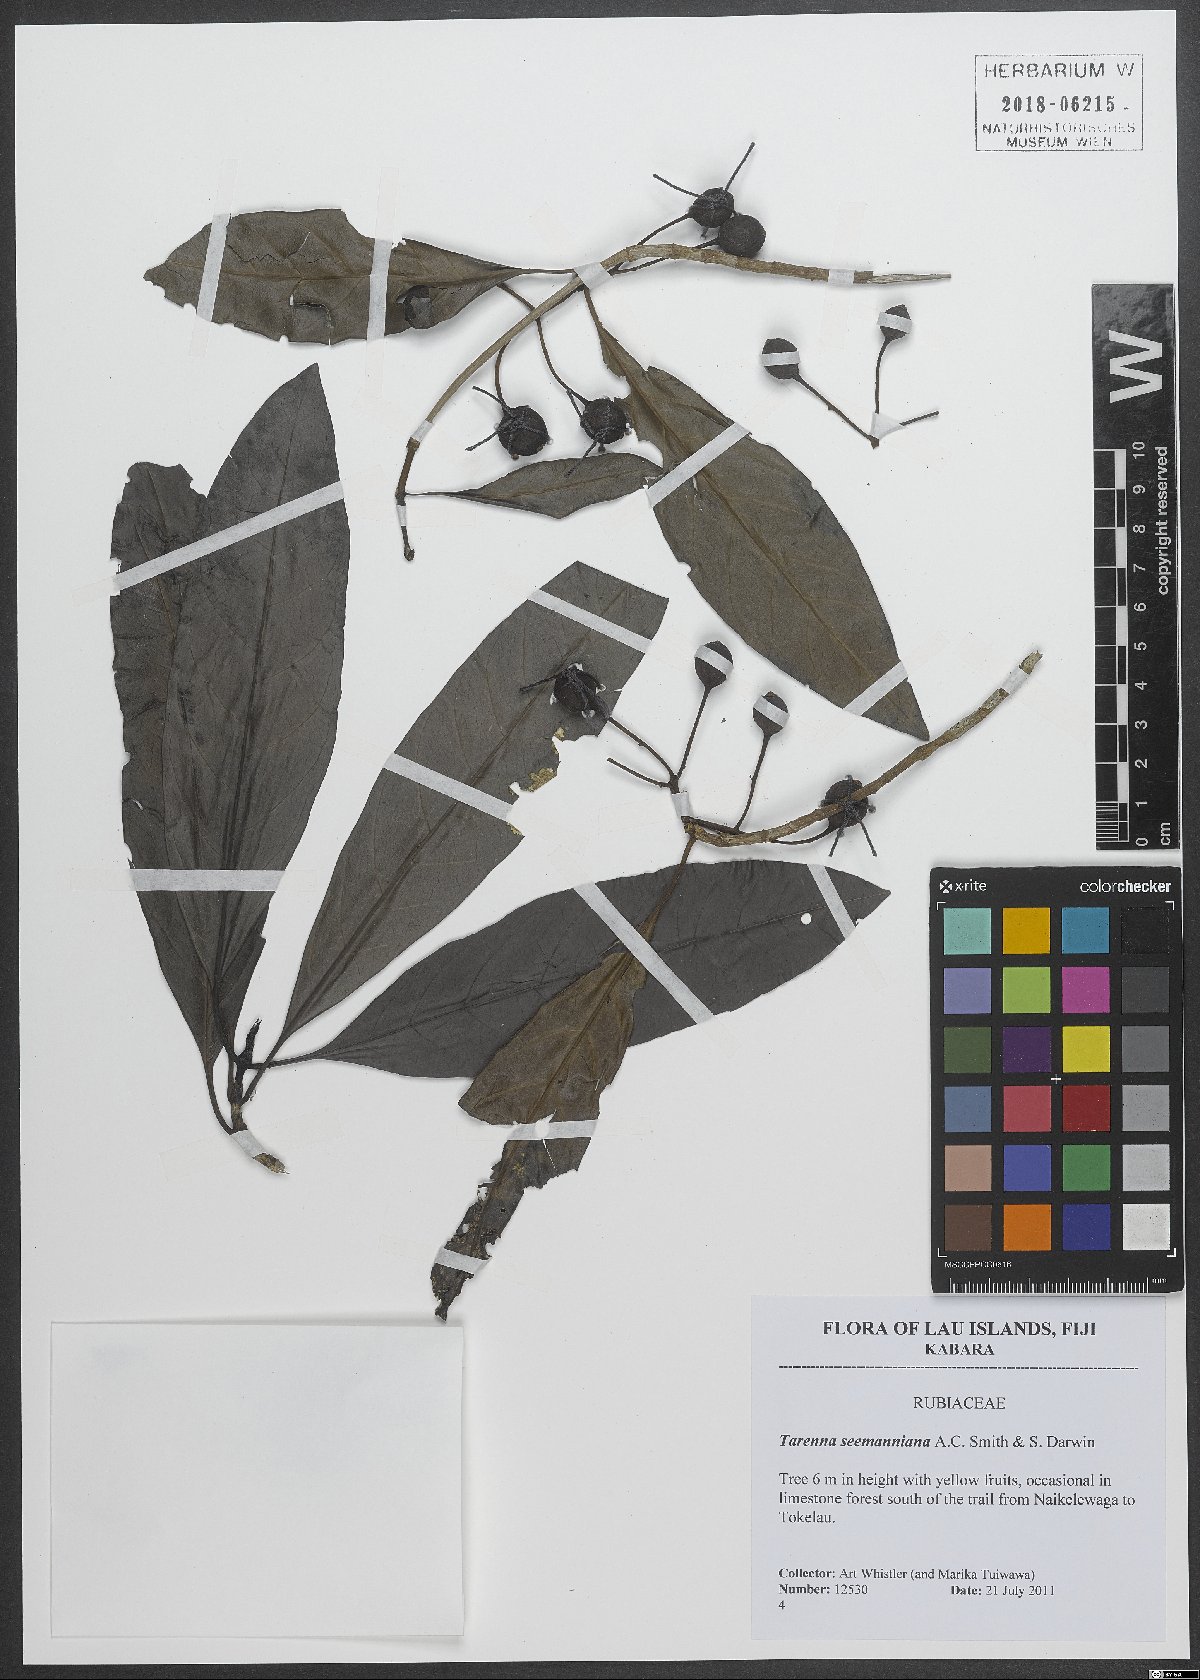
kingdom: Plantae
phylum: Tracheophyta
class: Magnoliopsida
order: Gentianales
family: Rubiaceae
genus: Tarenna
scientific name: Tarenna seemanniana
